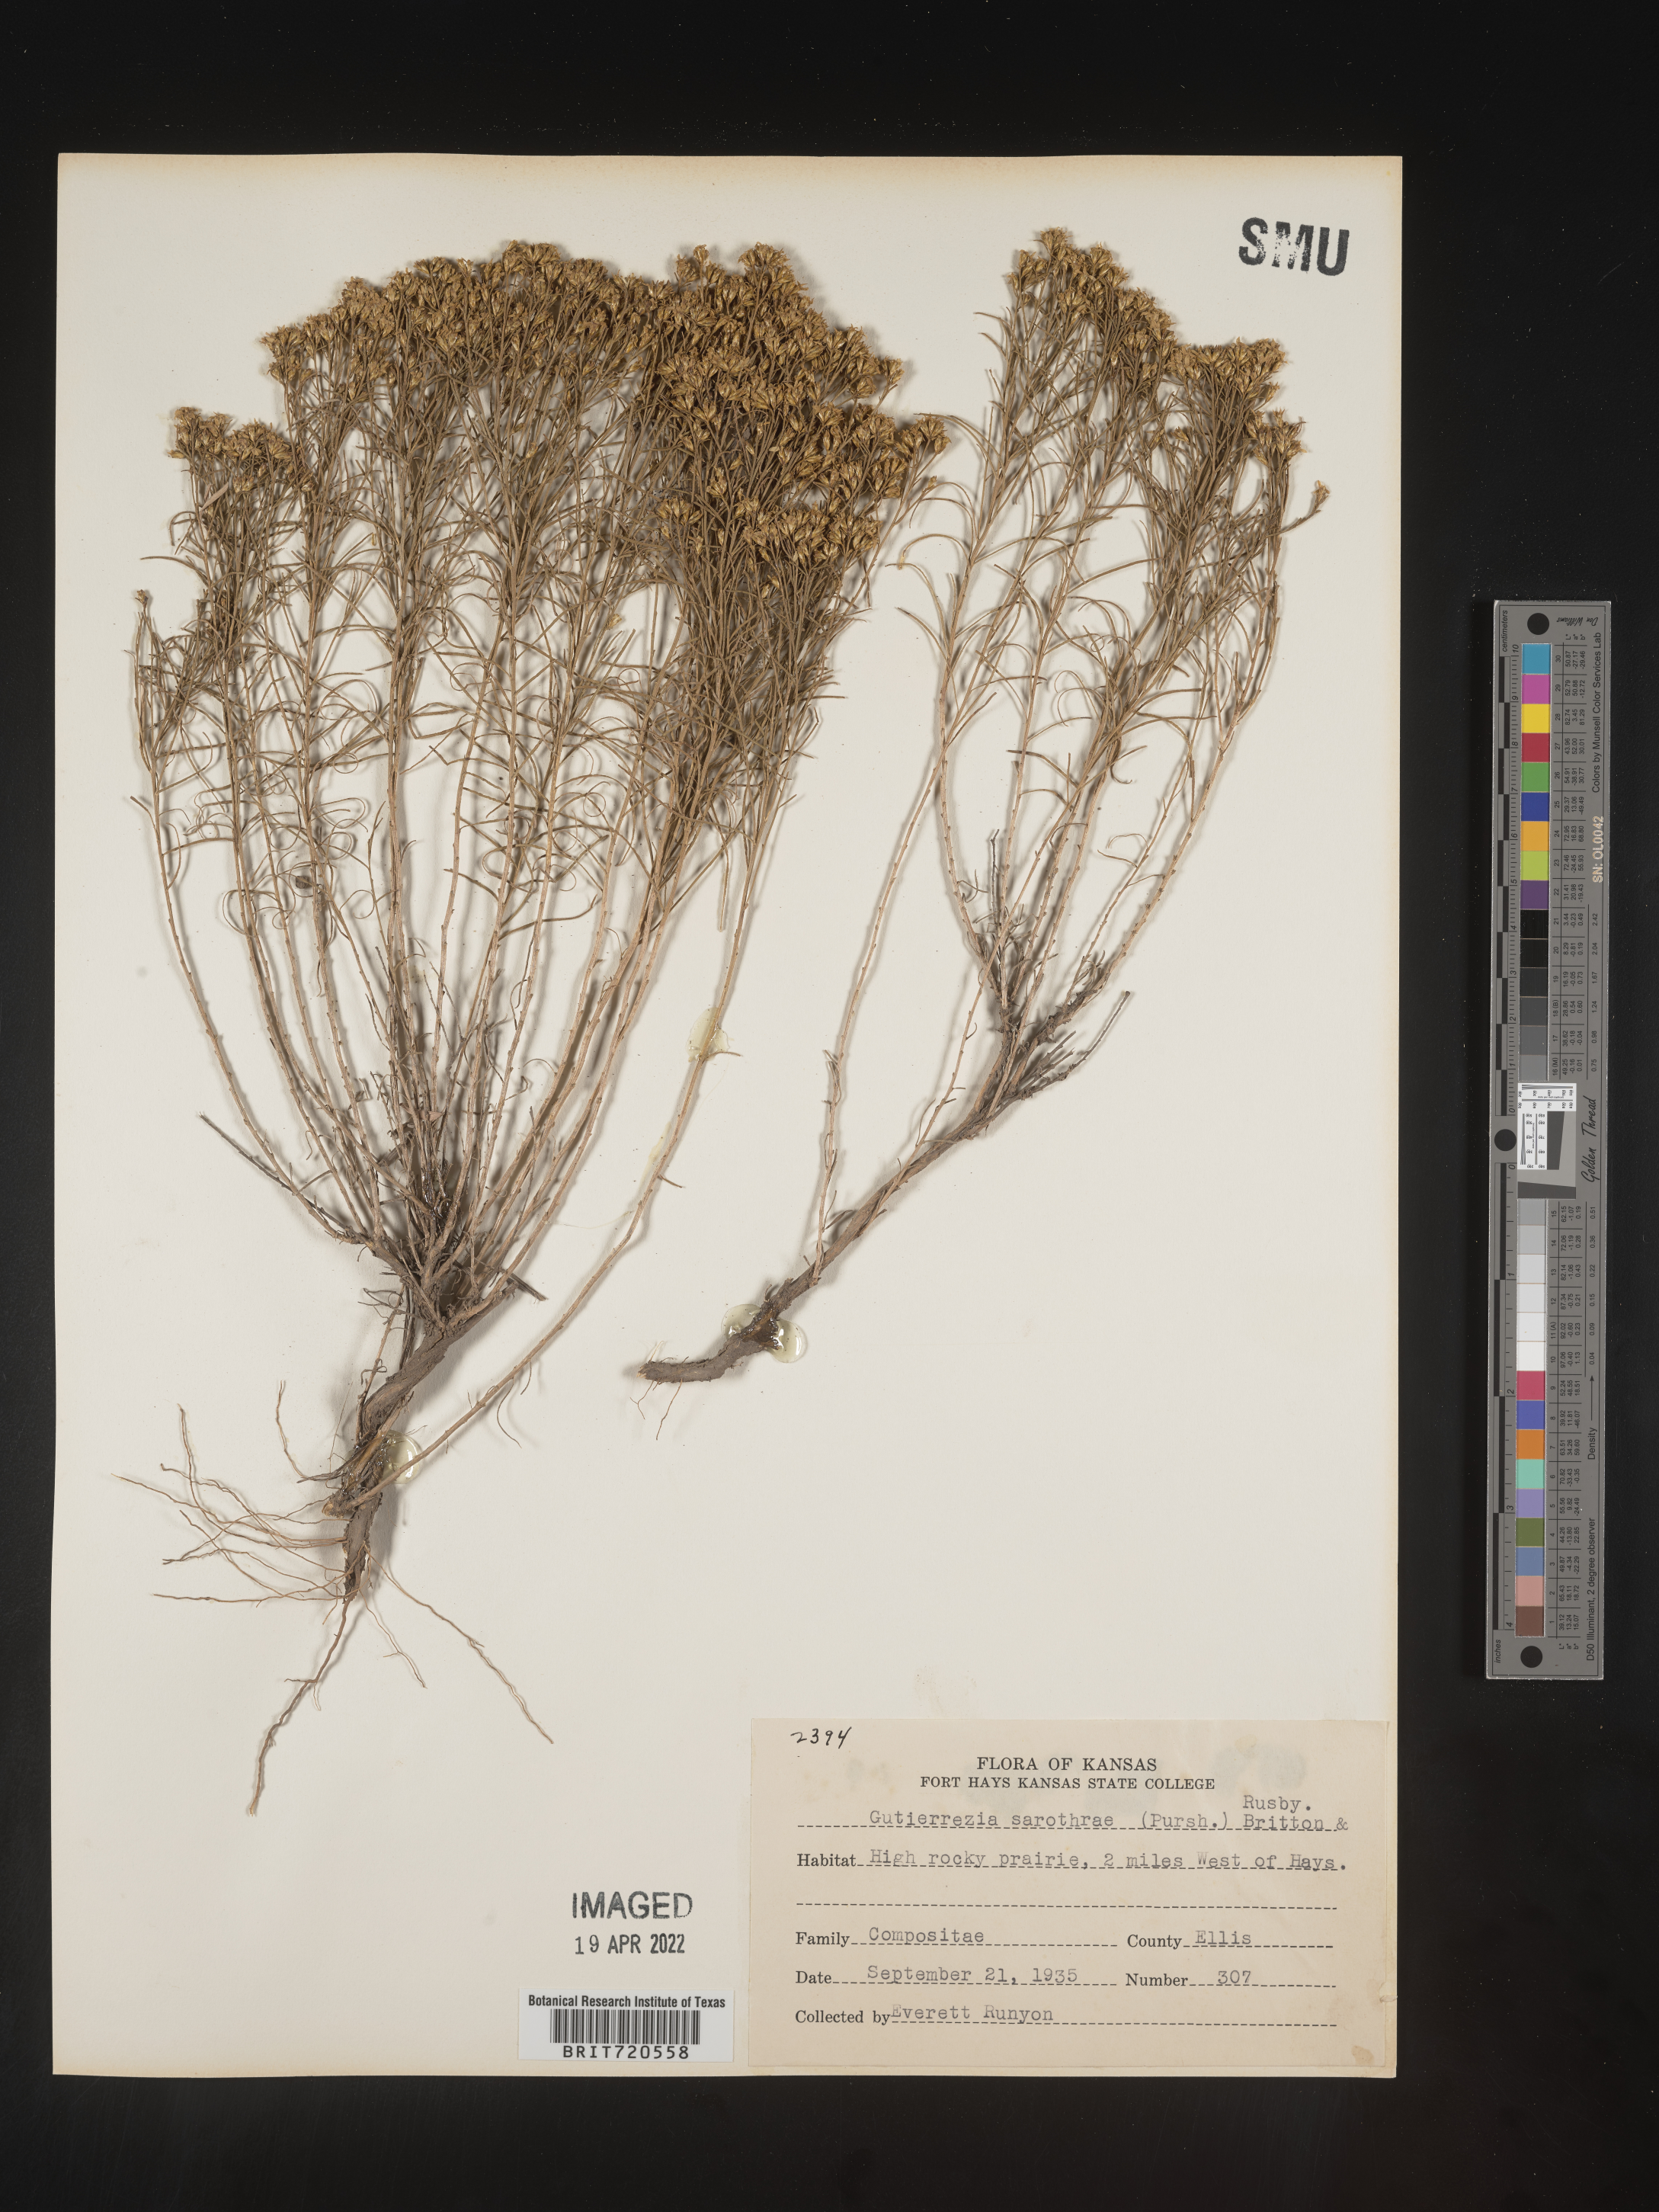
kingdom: Plantae
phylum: Tracheophyta
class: Magnoliopsida
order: Asterales
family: Asteraceae
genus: Gutierrezia
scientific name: Gutierrezia sarothrae
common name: Broom snakeweed
